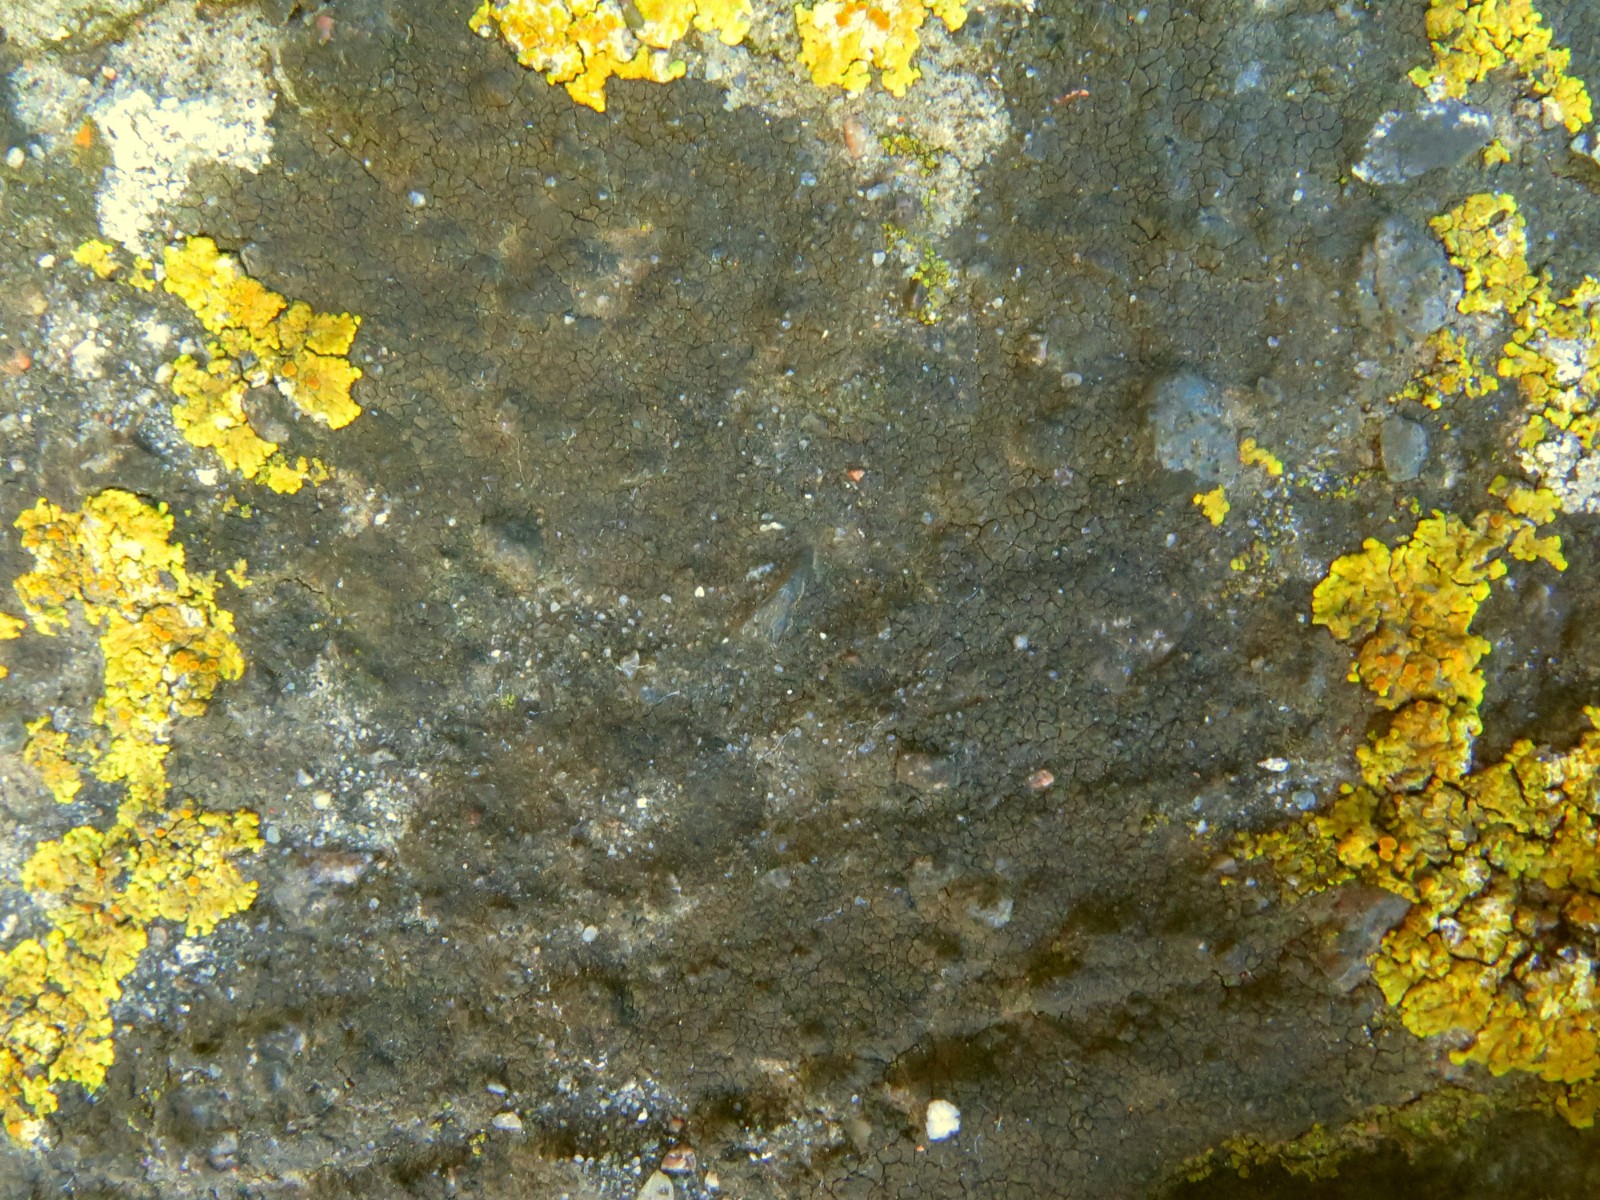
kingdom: Fungi
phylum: Ascomycota
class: Eurotiomycetes
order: Verrucariales
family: Verrucariaceae
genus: Verrucaria
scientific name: Verrucaria nigrescens
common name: sortbrun vortelav
